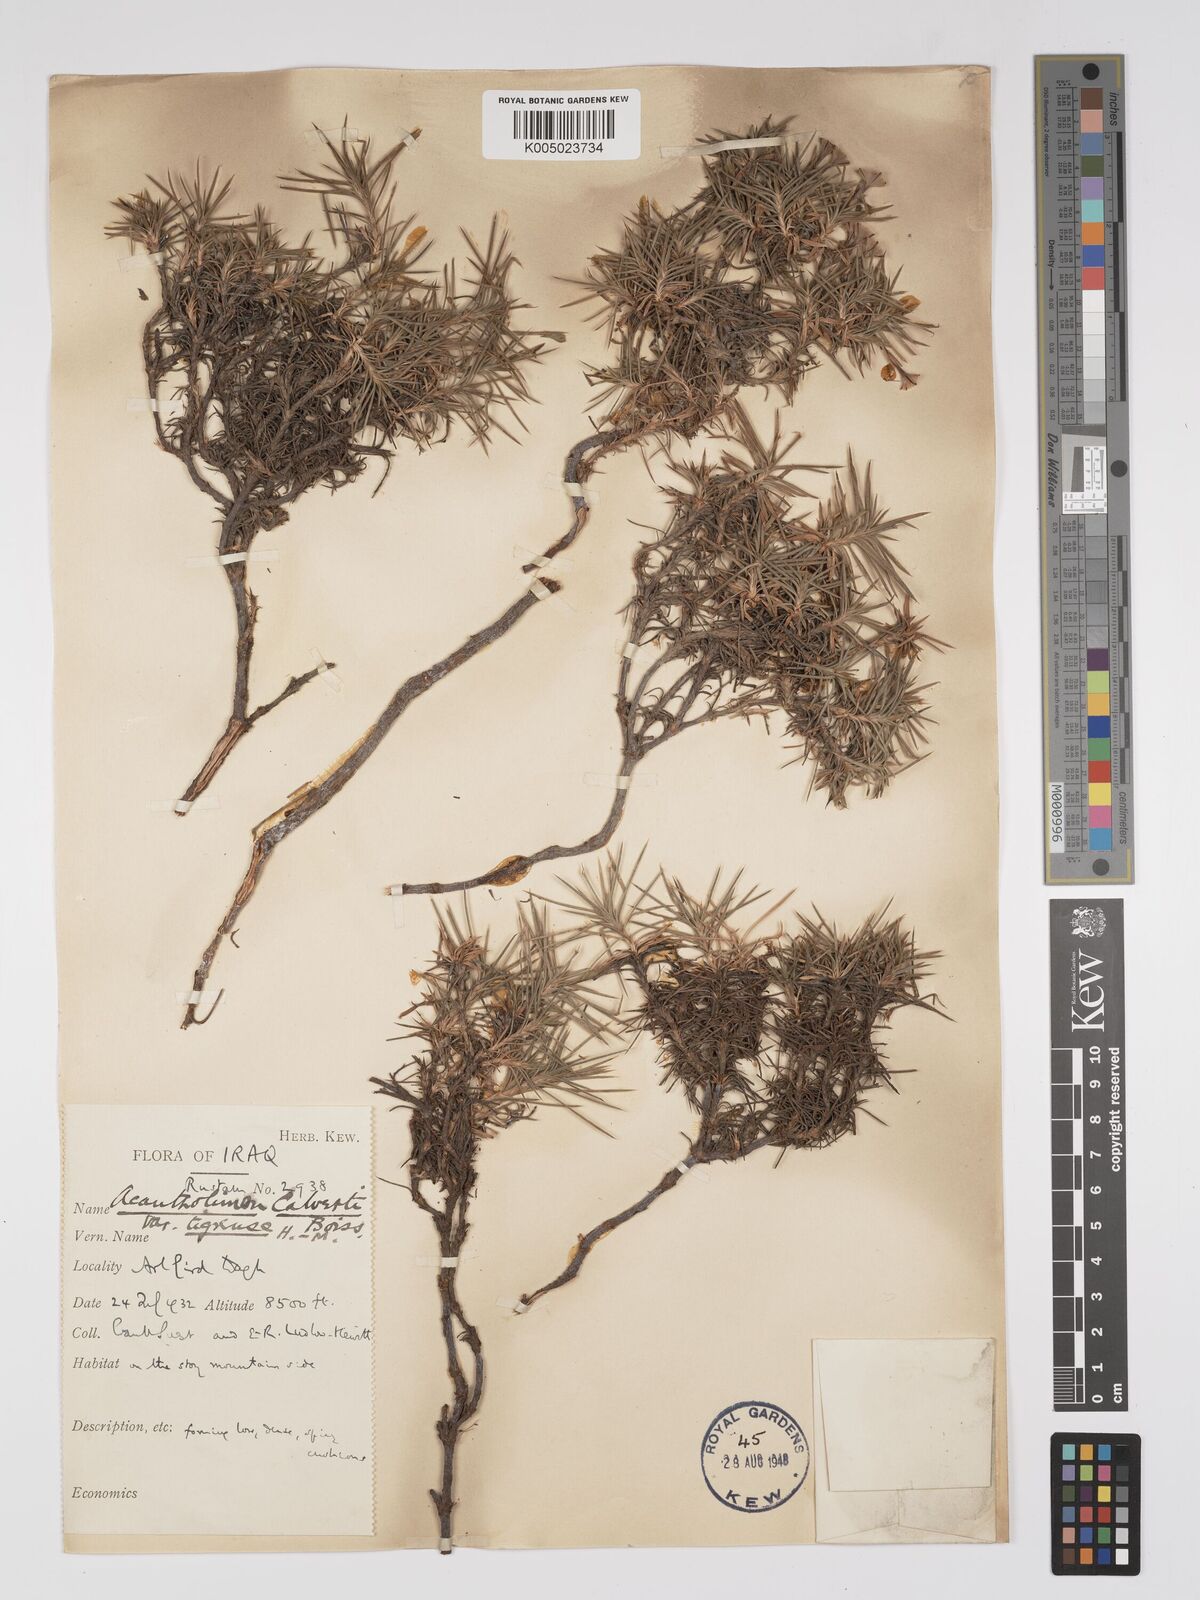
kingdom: Plantae
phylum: Tracheophyta
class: Magnoliopsida
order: Caryophyllales
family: Plumbaginaceae
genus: Acantholimon
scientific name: Acantholimon calvertii
